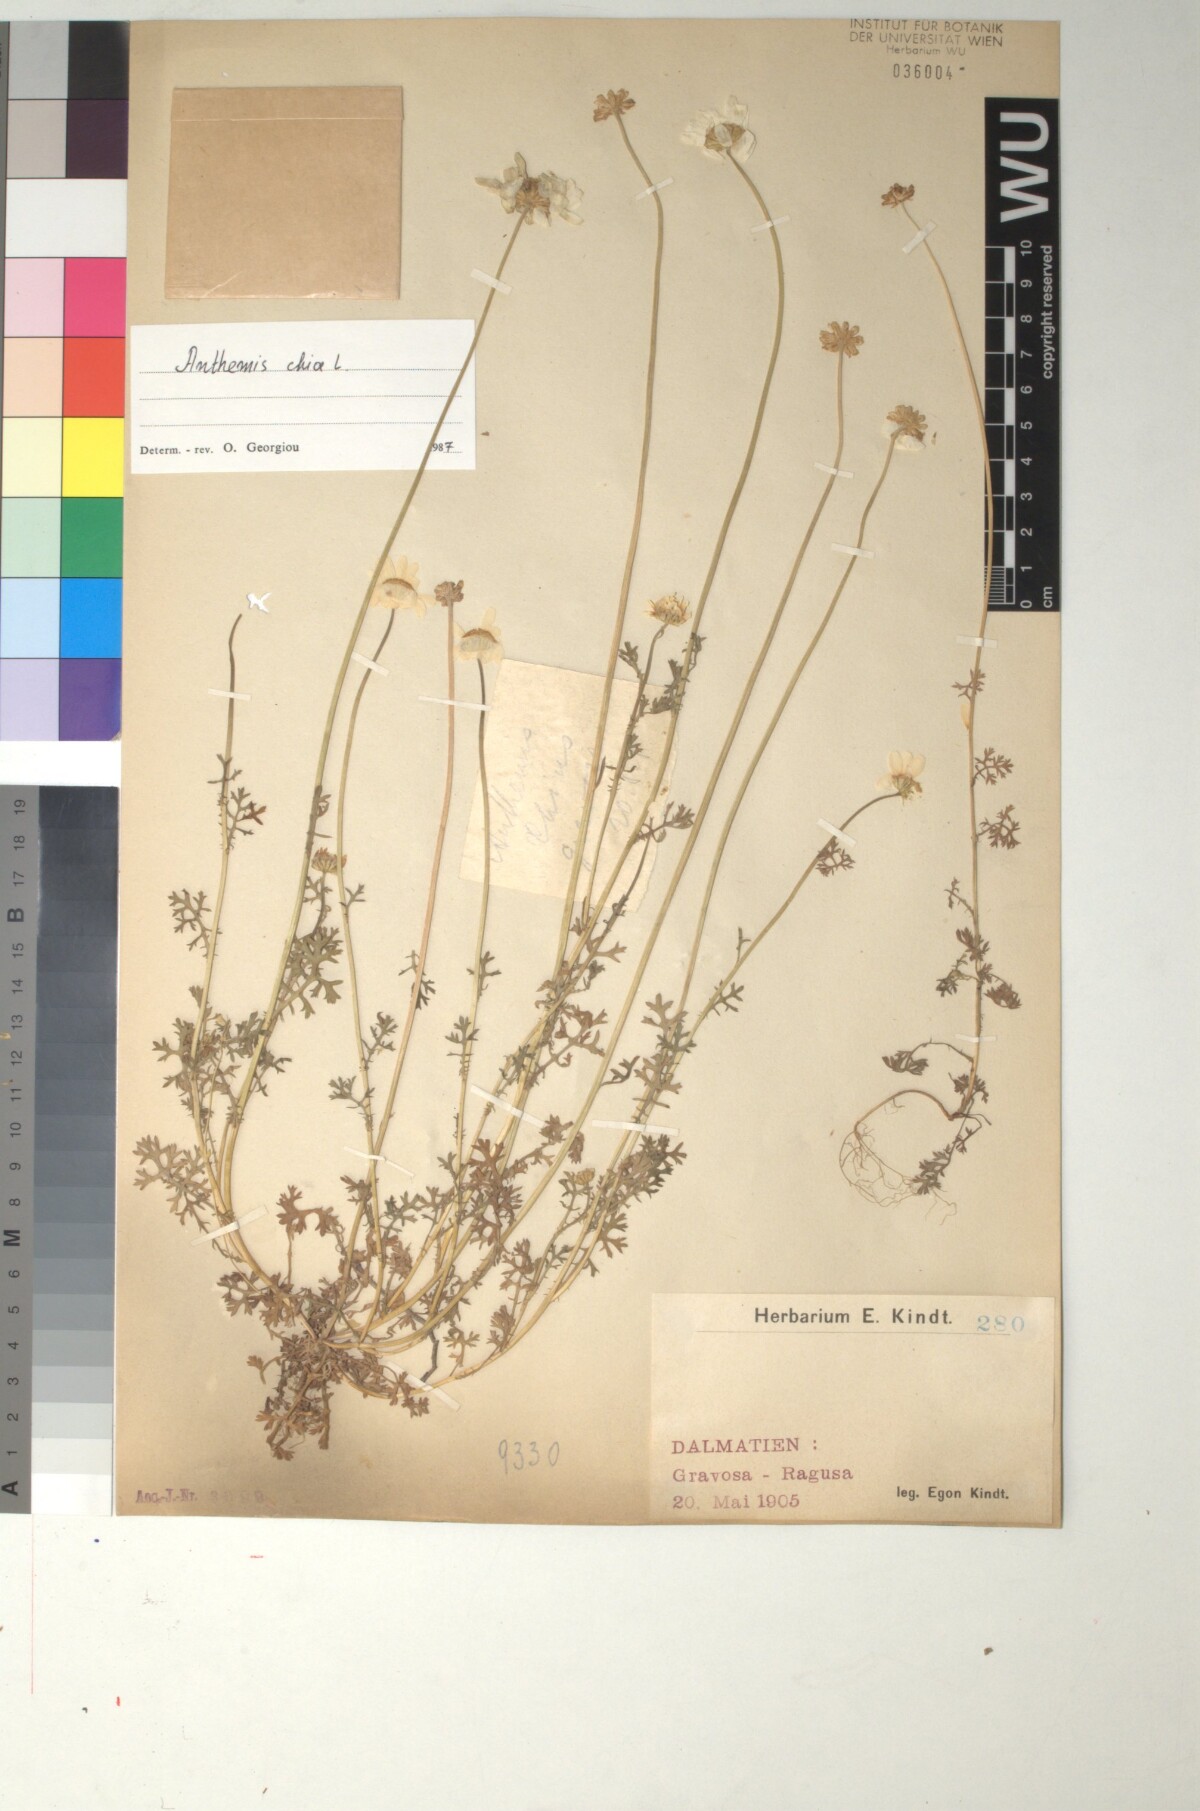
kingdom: Plantae
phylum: Tracheophyta
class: Magnoliopsida
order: Asterales
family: Asteraceae
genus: Anthemis
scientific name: Anthemis chia
